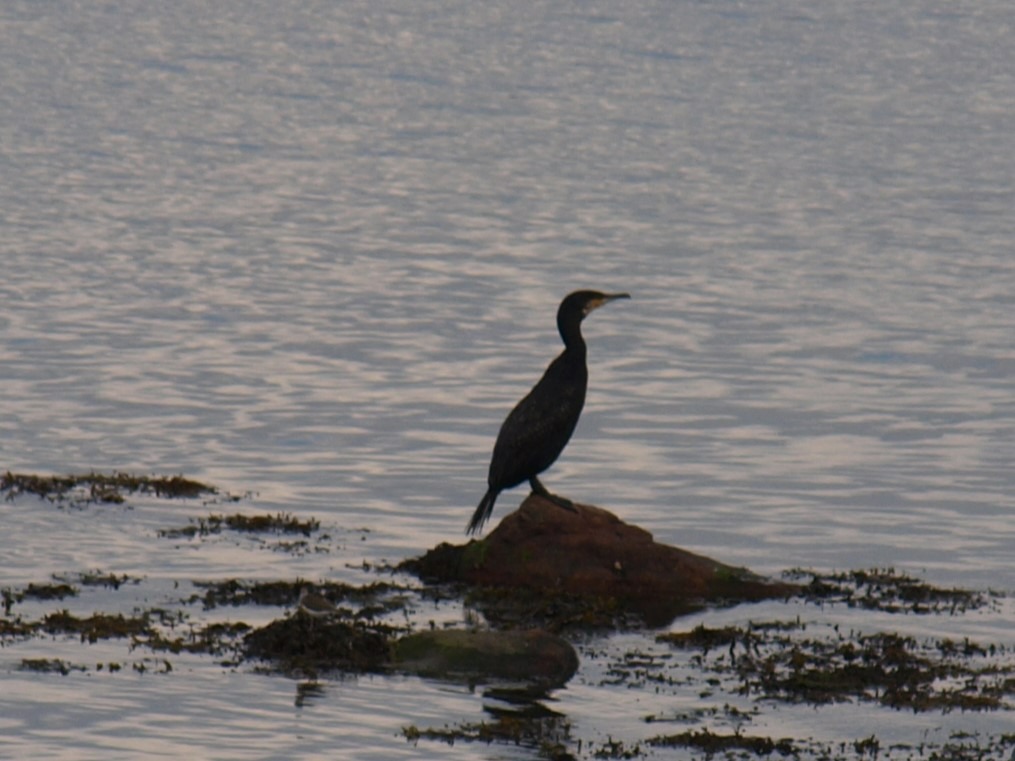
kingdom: Animalia
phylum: Chordata
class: Aves
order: Suliformes
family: Phalacrocoracidae
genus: Phalacrocorax
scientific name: Phalacrocorax carbo
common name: Skarv
